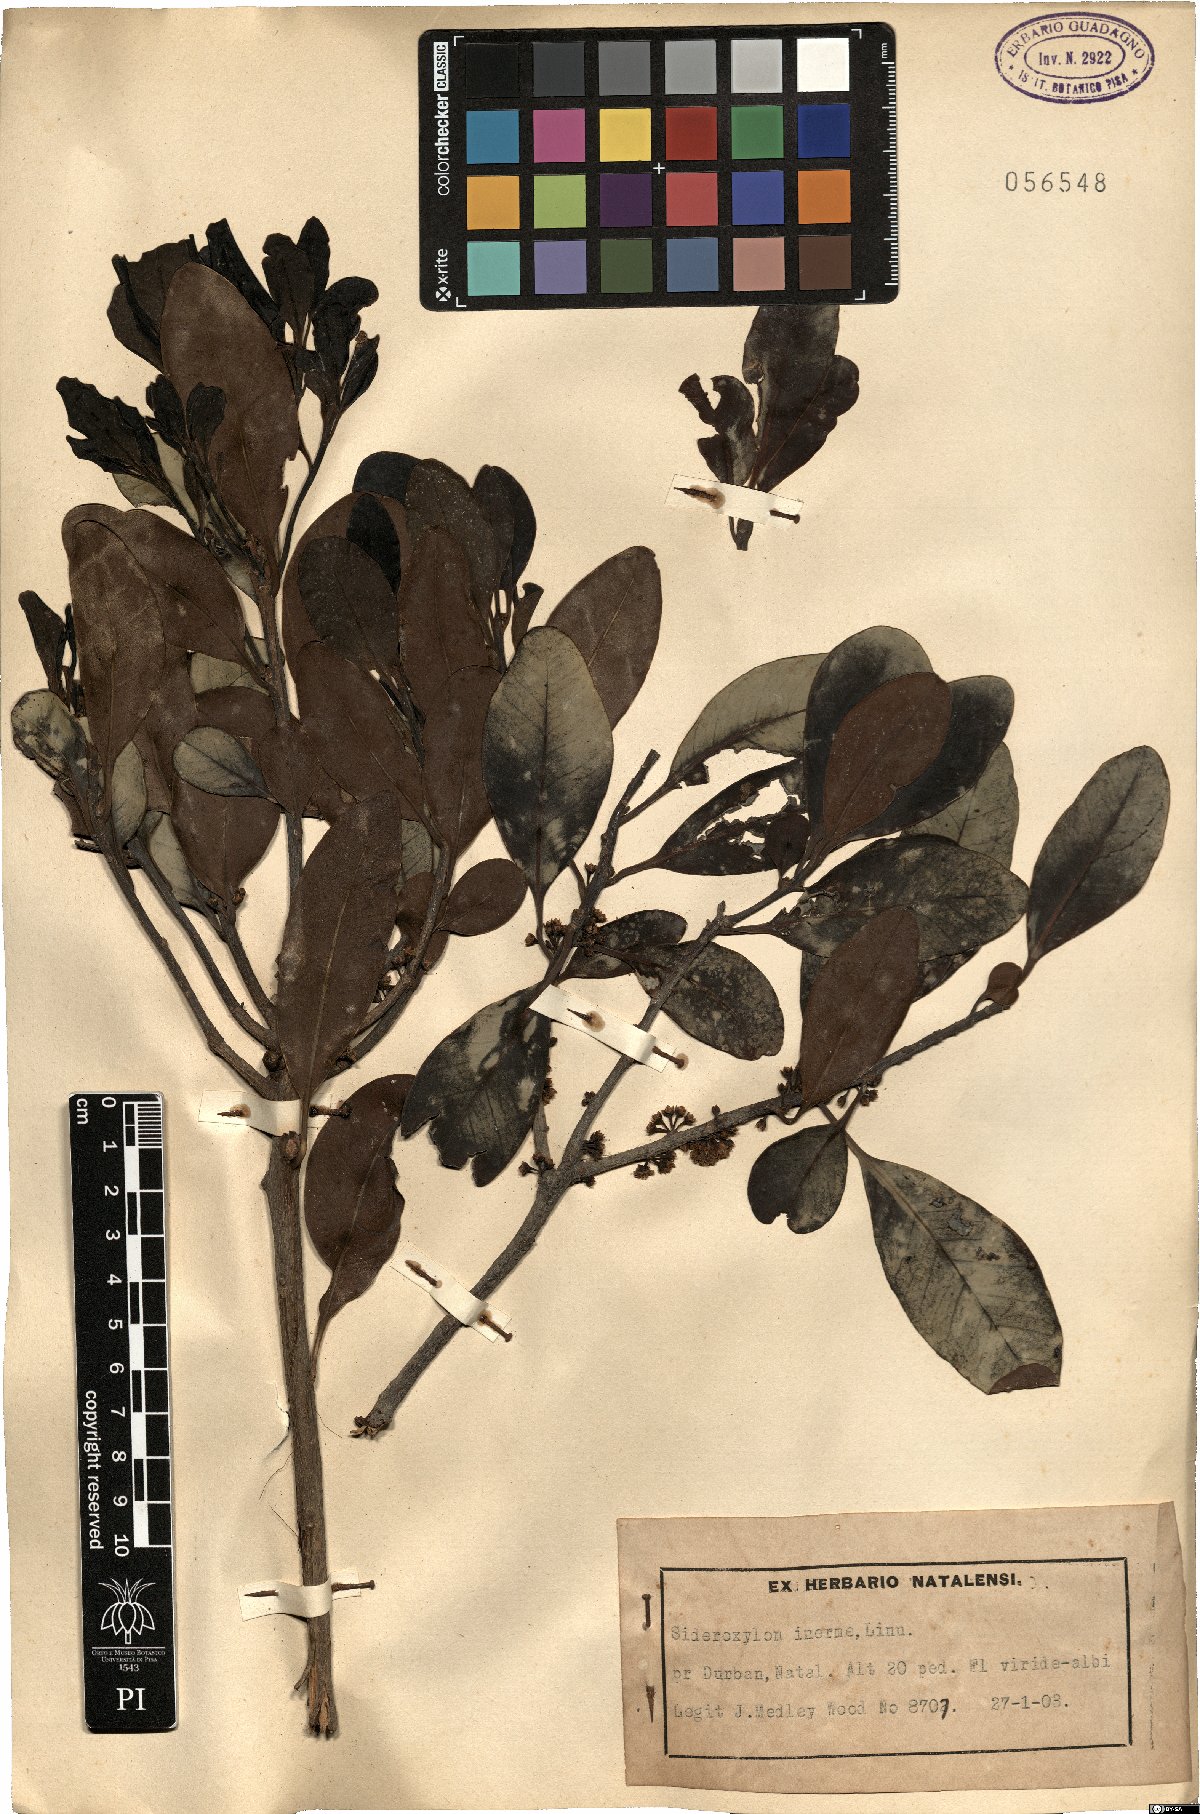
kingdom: Plantae
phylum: Tracheophyta
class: Magnoliopsida
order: Ericales
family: Sapotaceae
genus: Sideroxylon
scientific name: Sideroxylon inerme
